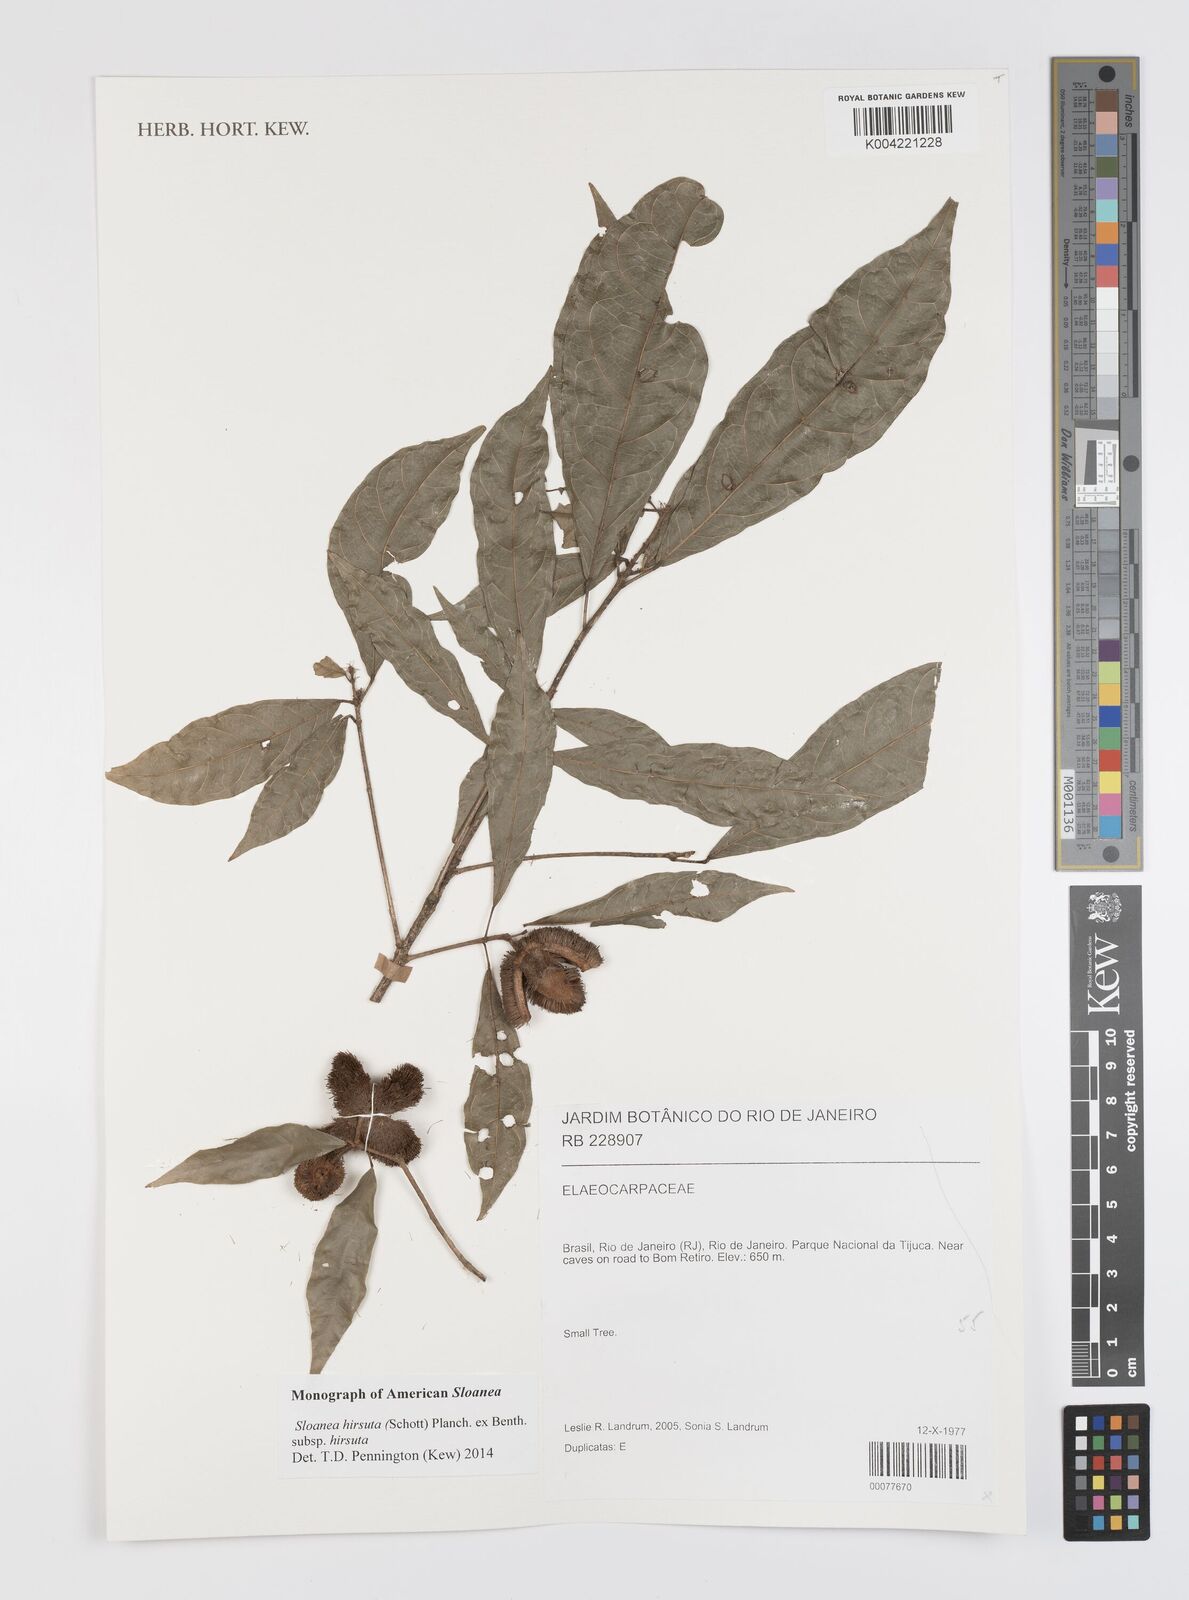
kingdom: Plantae
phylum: Tracheophyta
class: Magnoliopsida
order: Oxalidales
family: Elaeocarpaceae
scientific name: Elaeocarpaceae
